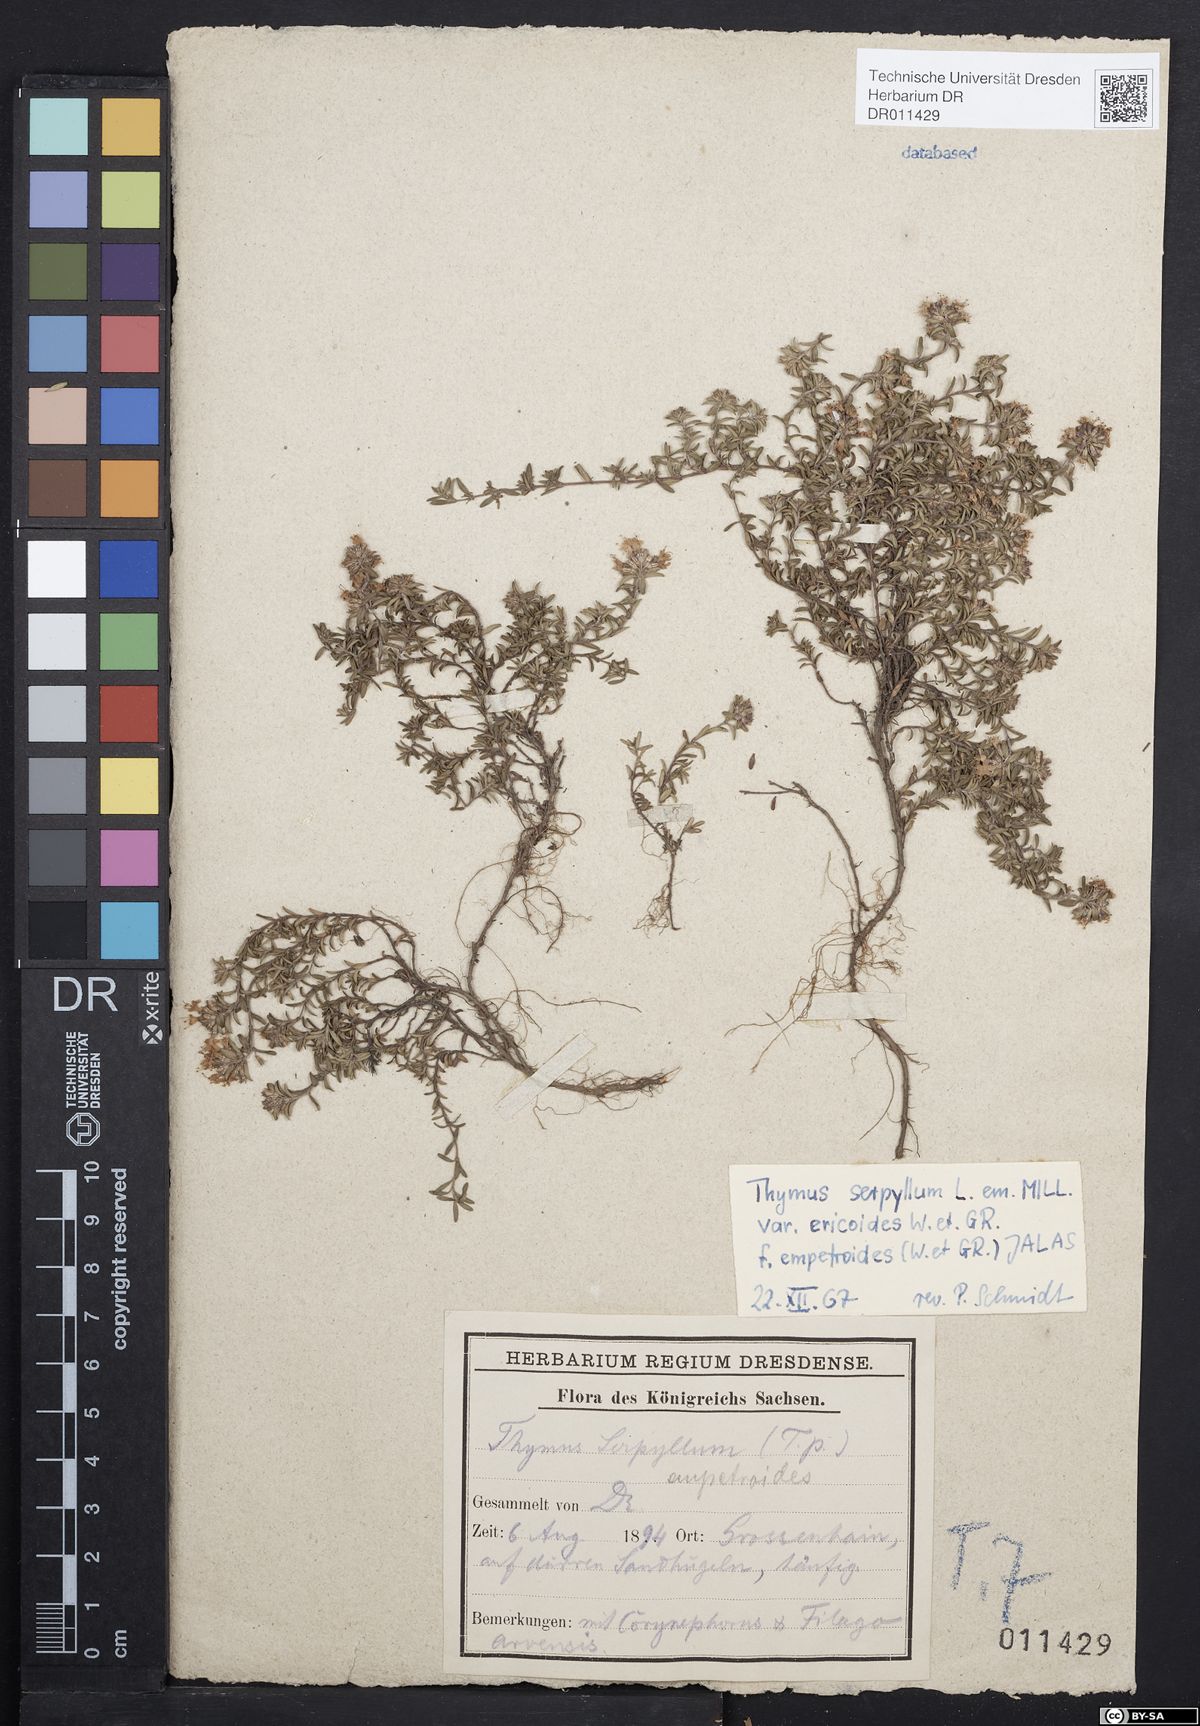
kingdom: Plantae
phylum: Tracheophyta
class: Magnoliopsida
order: Lamiales
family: Lamiaceae
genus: Thymus
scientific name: Thymus serpyllum
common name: Breckland thyme
